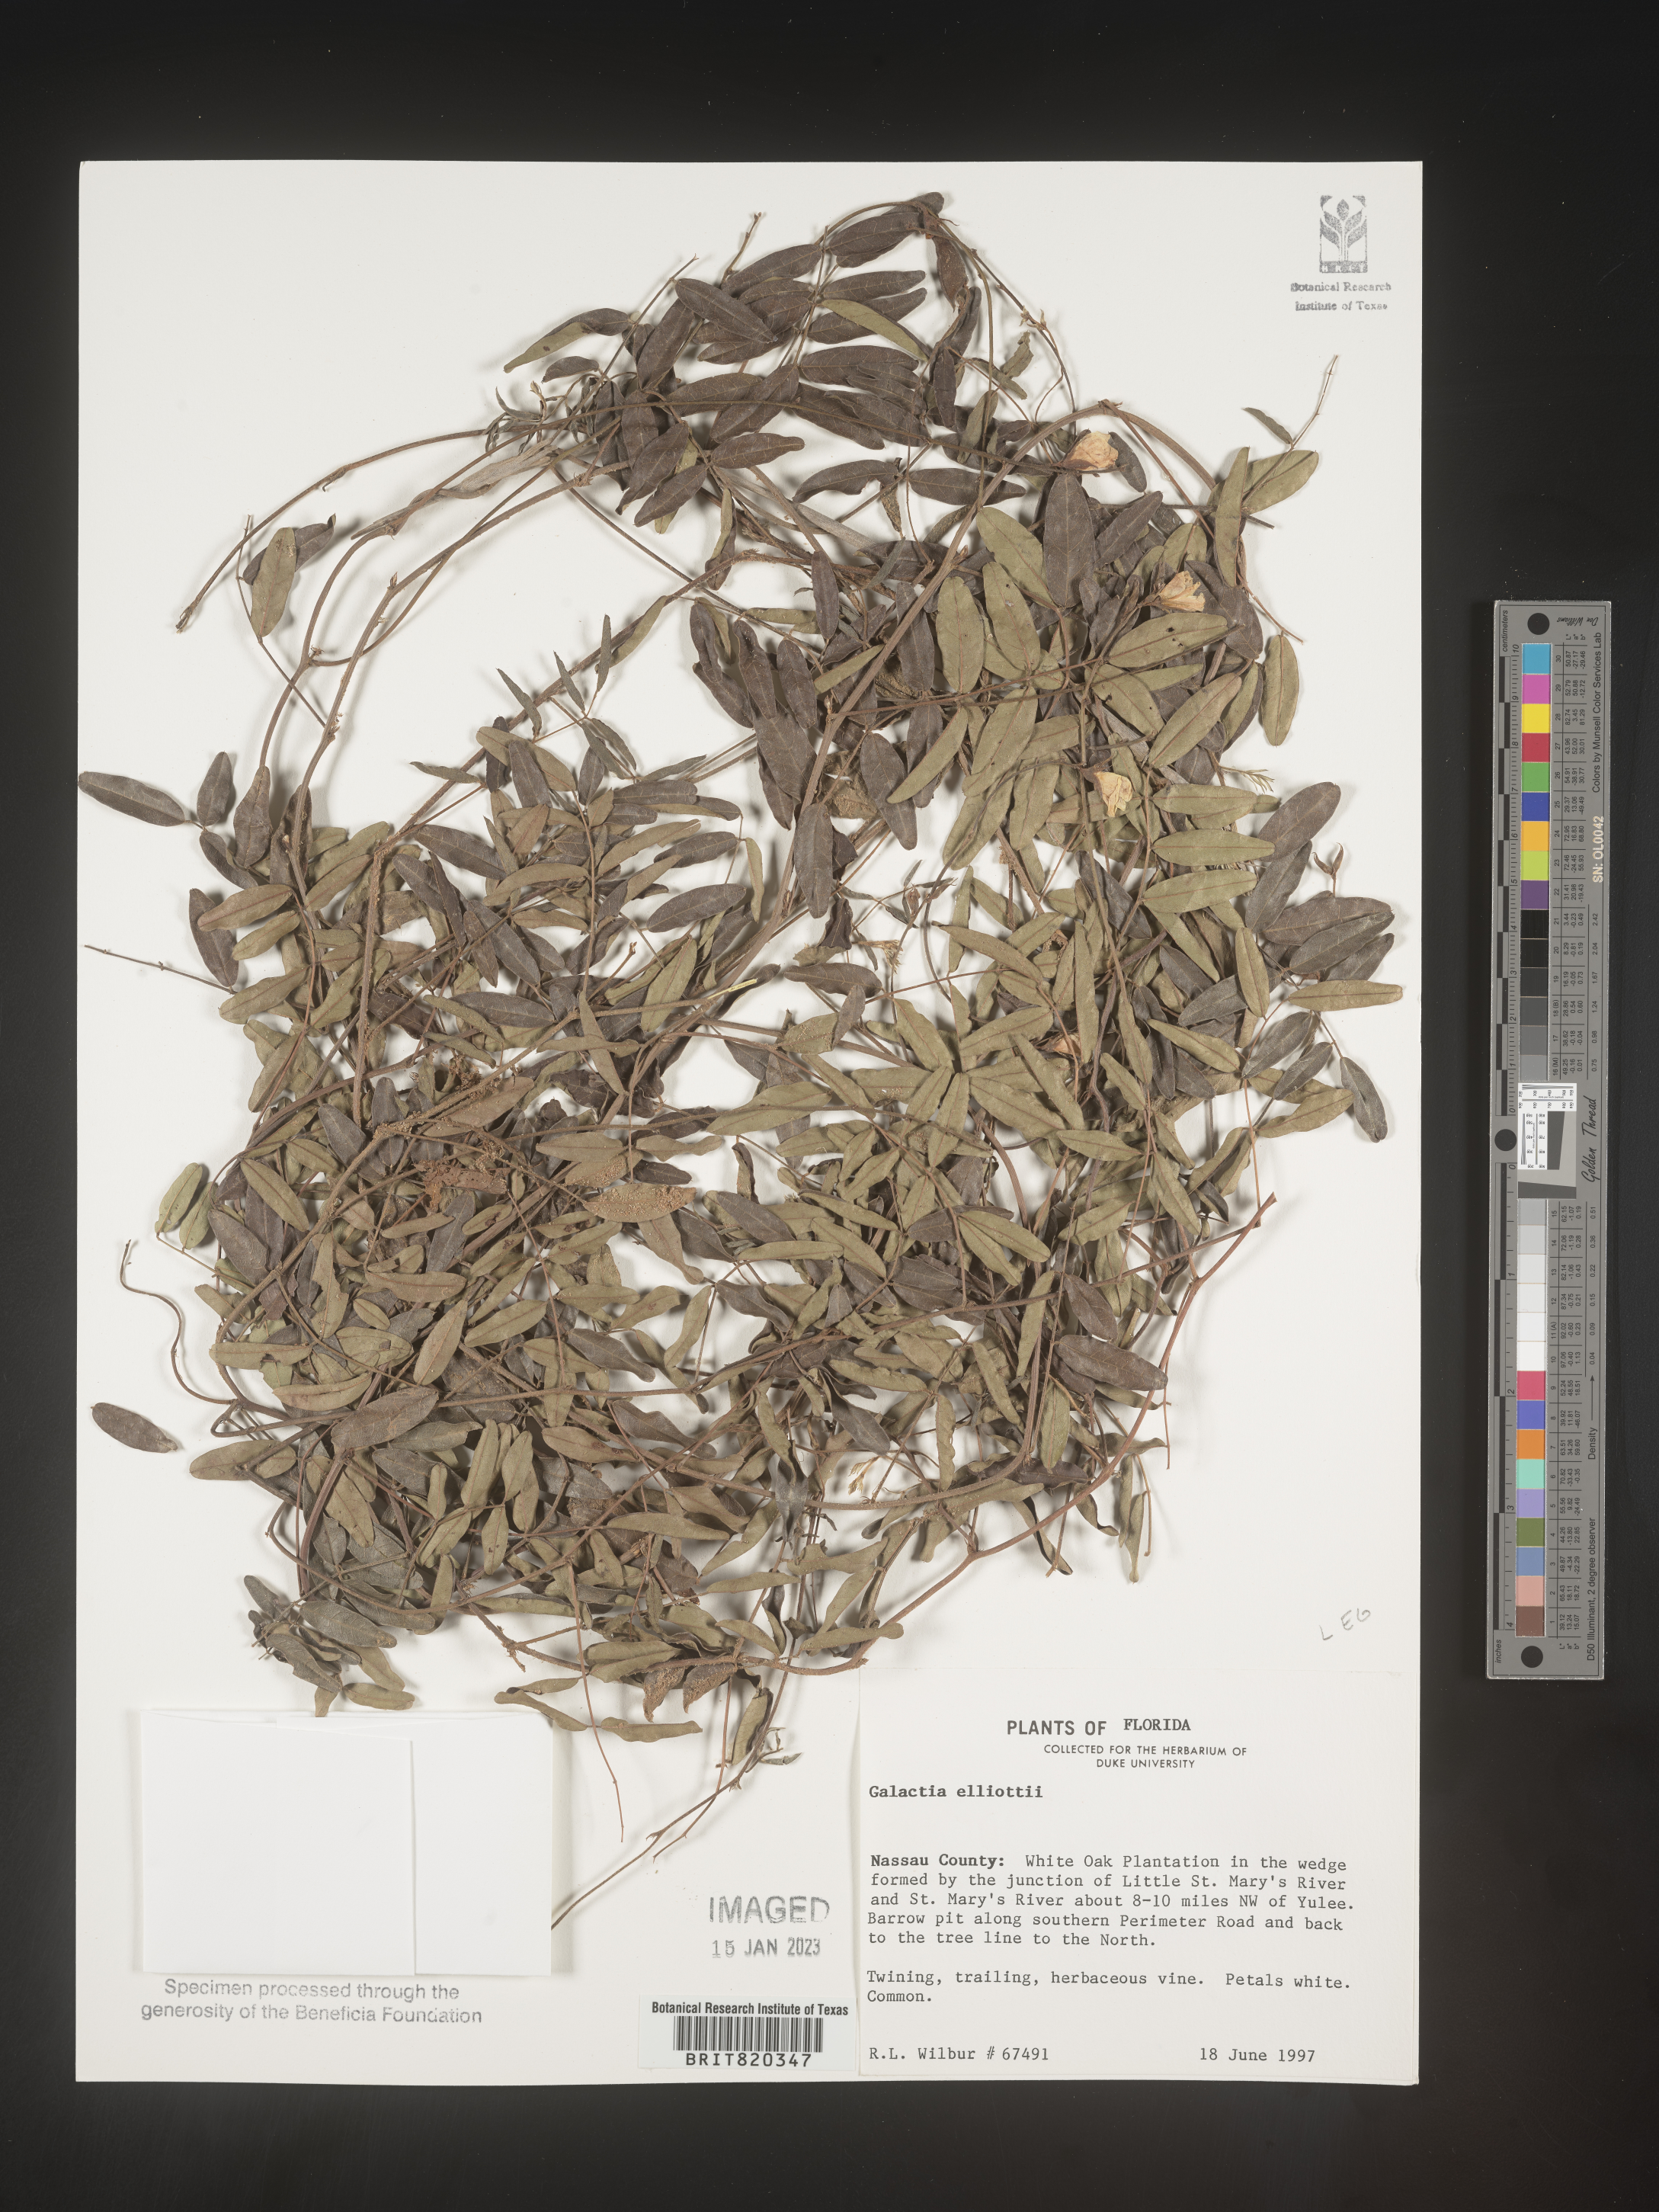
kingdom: Plantae
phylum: Tracheophyta
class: Magnoliopsida
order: Fabales
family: Fabaceae
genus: Galactia
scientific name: Galactia elliottii
